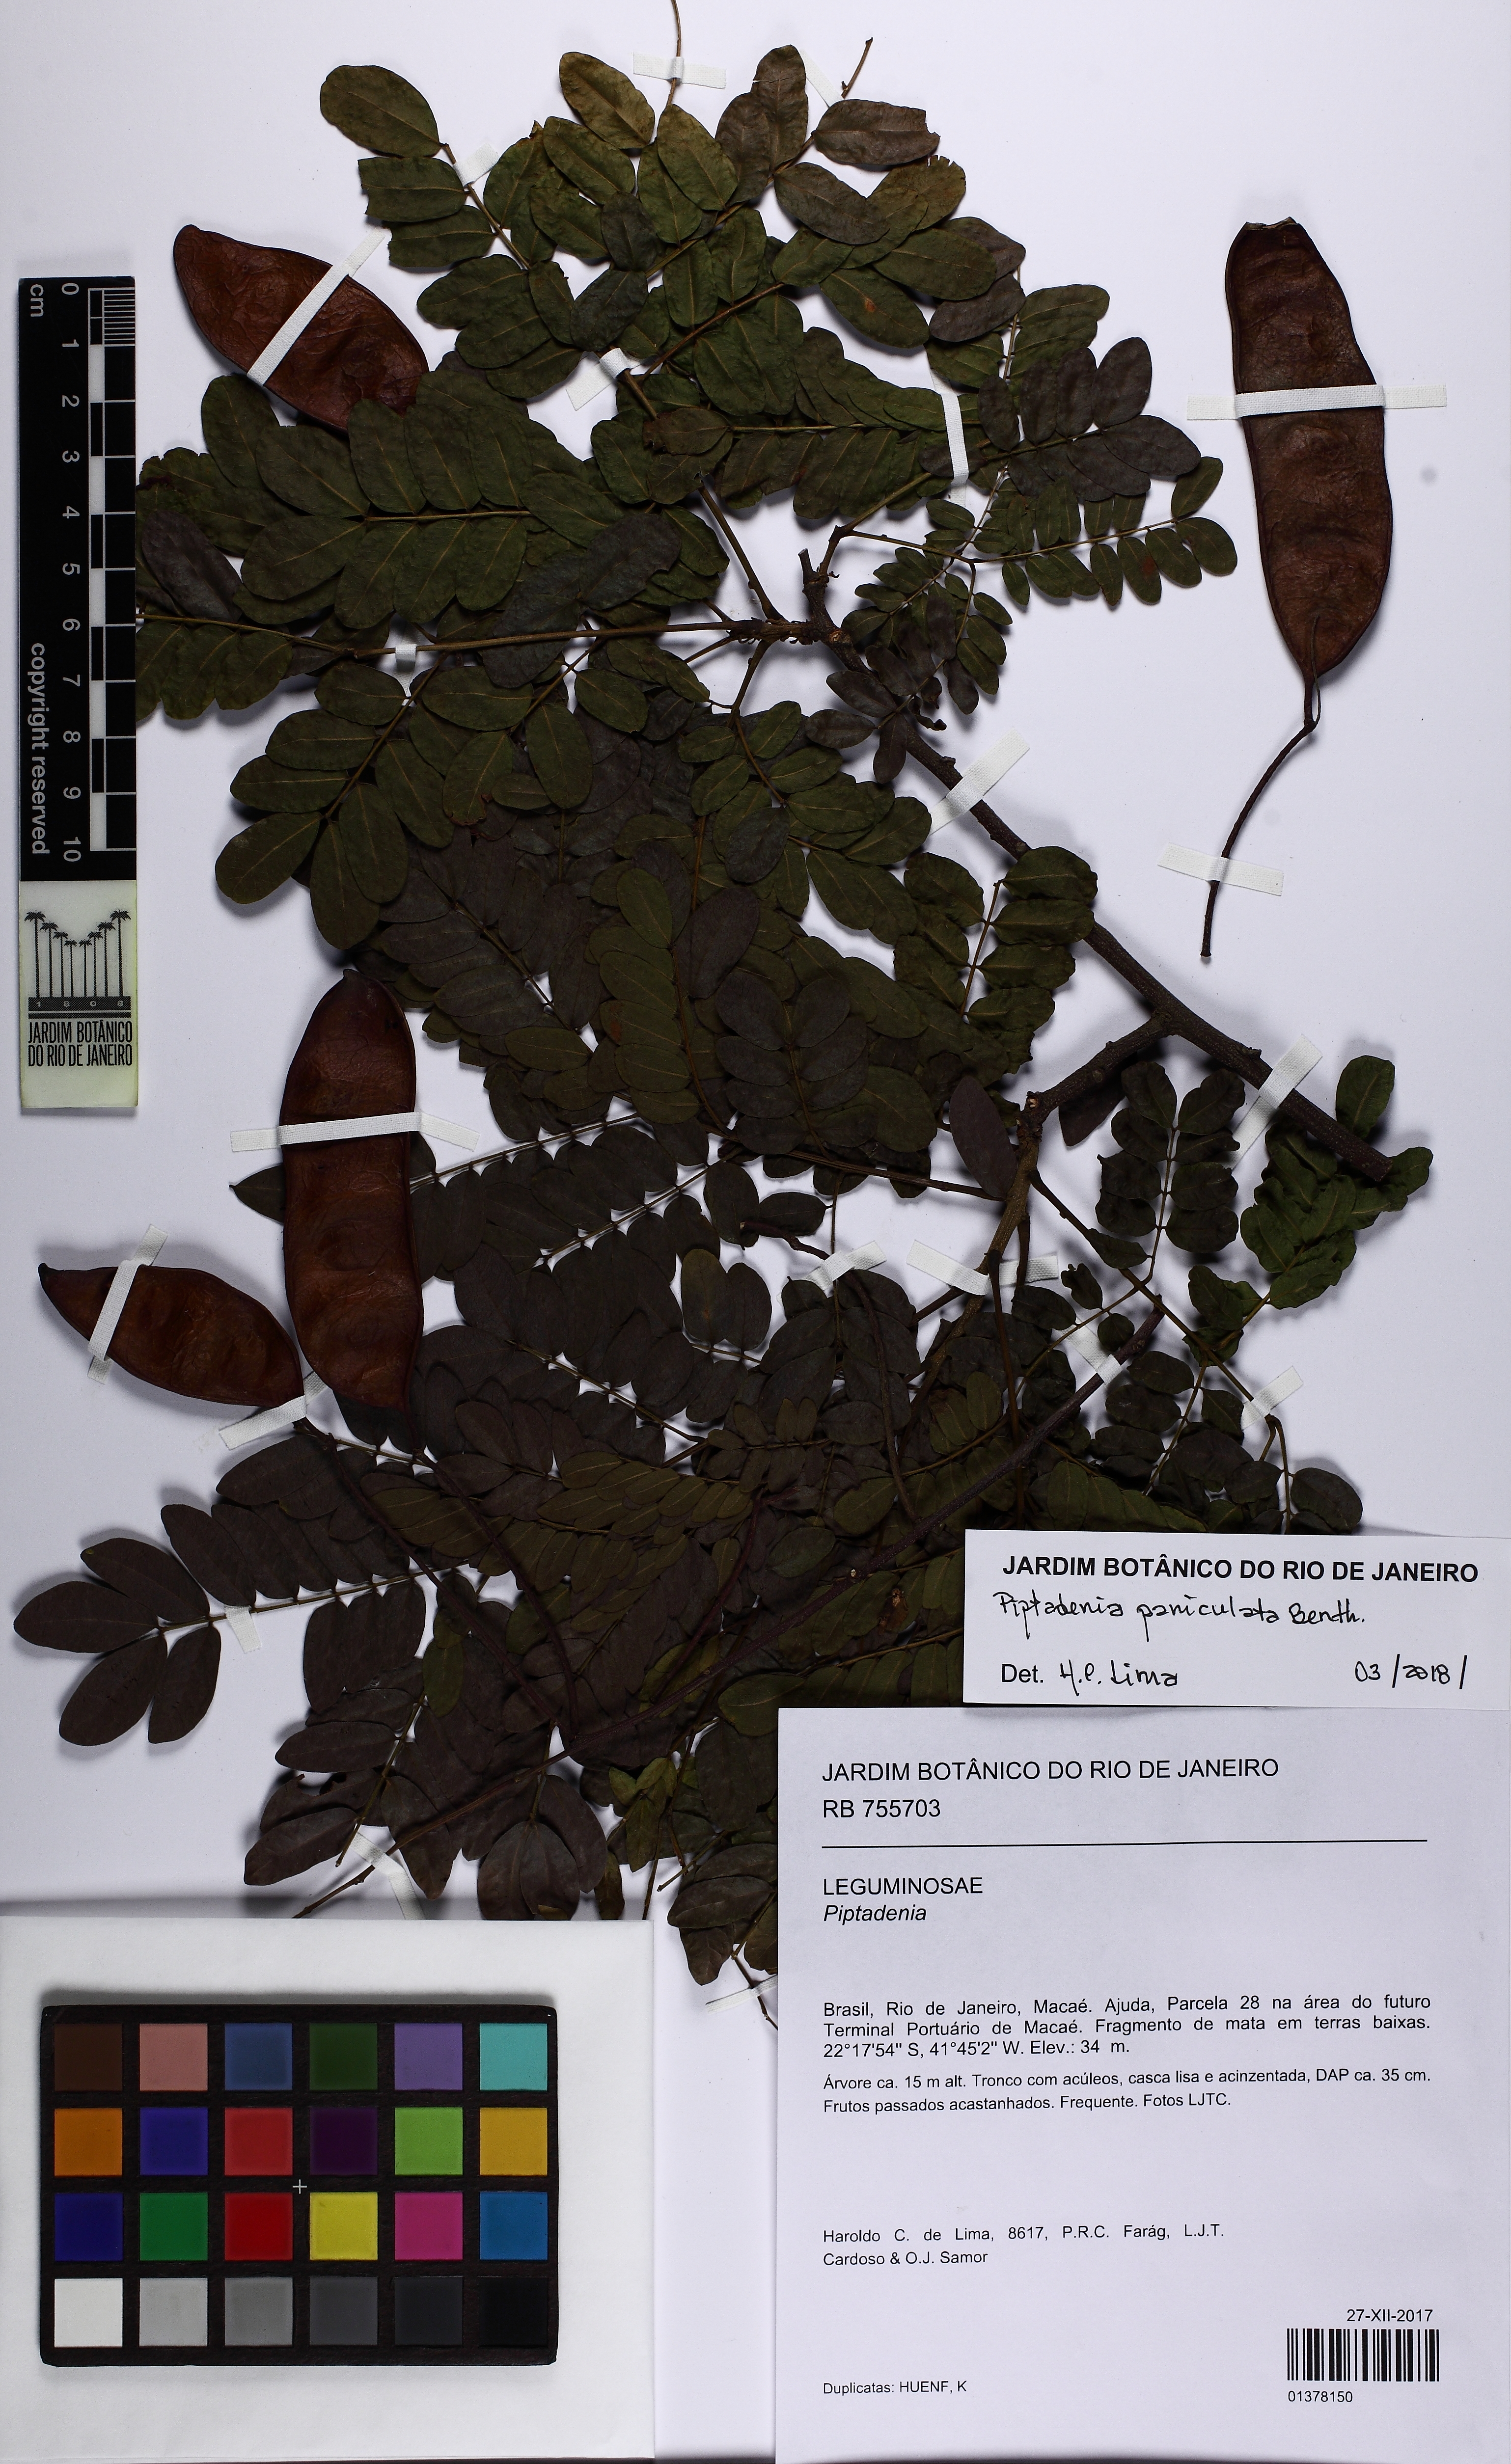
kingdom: Plantae
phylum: Tracheophyta
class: Magnoliopsida
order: Fabales
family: Fabaceae
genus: Piptadenia
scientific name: Piptadenia paniculata
